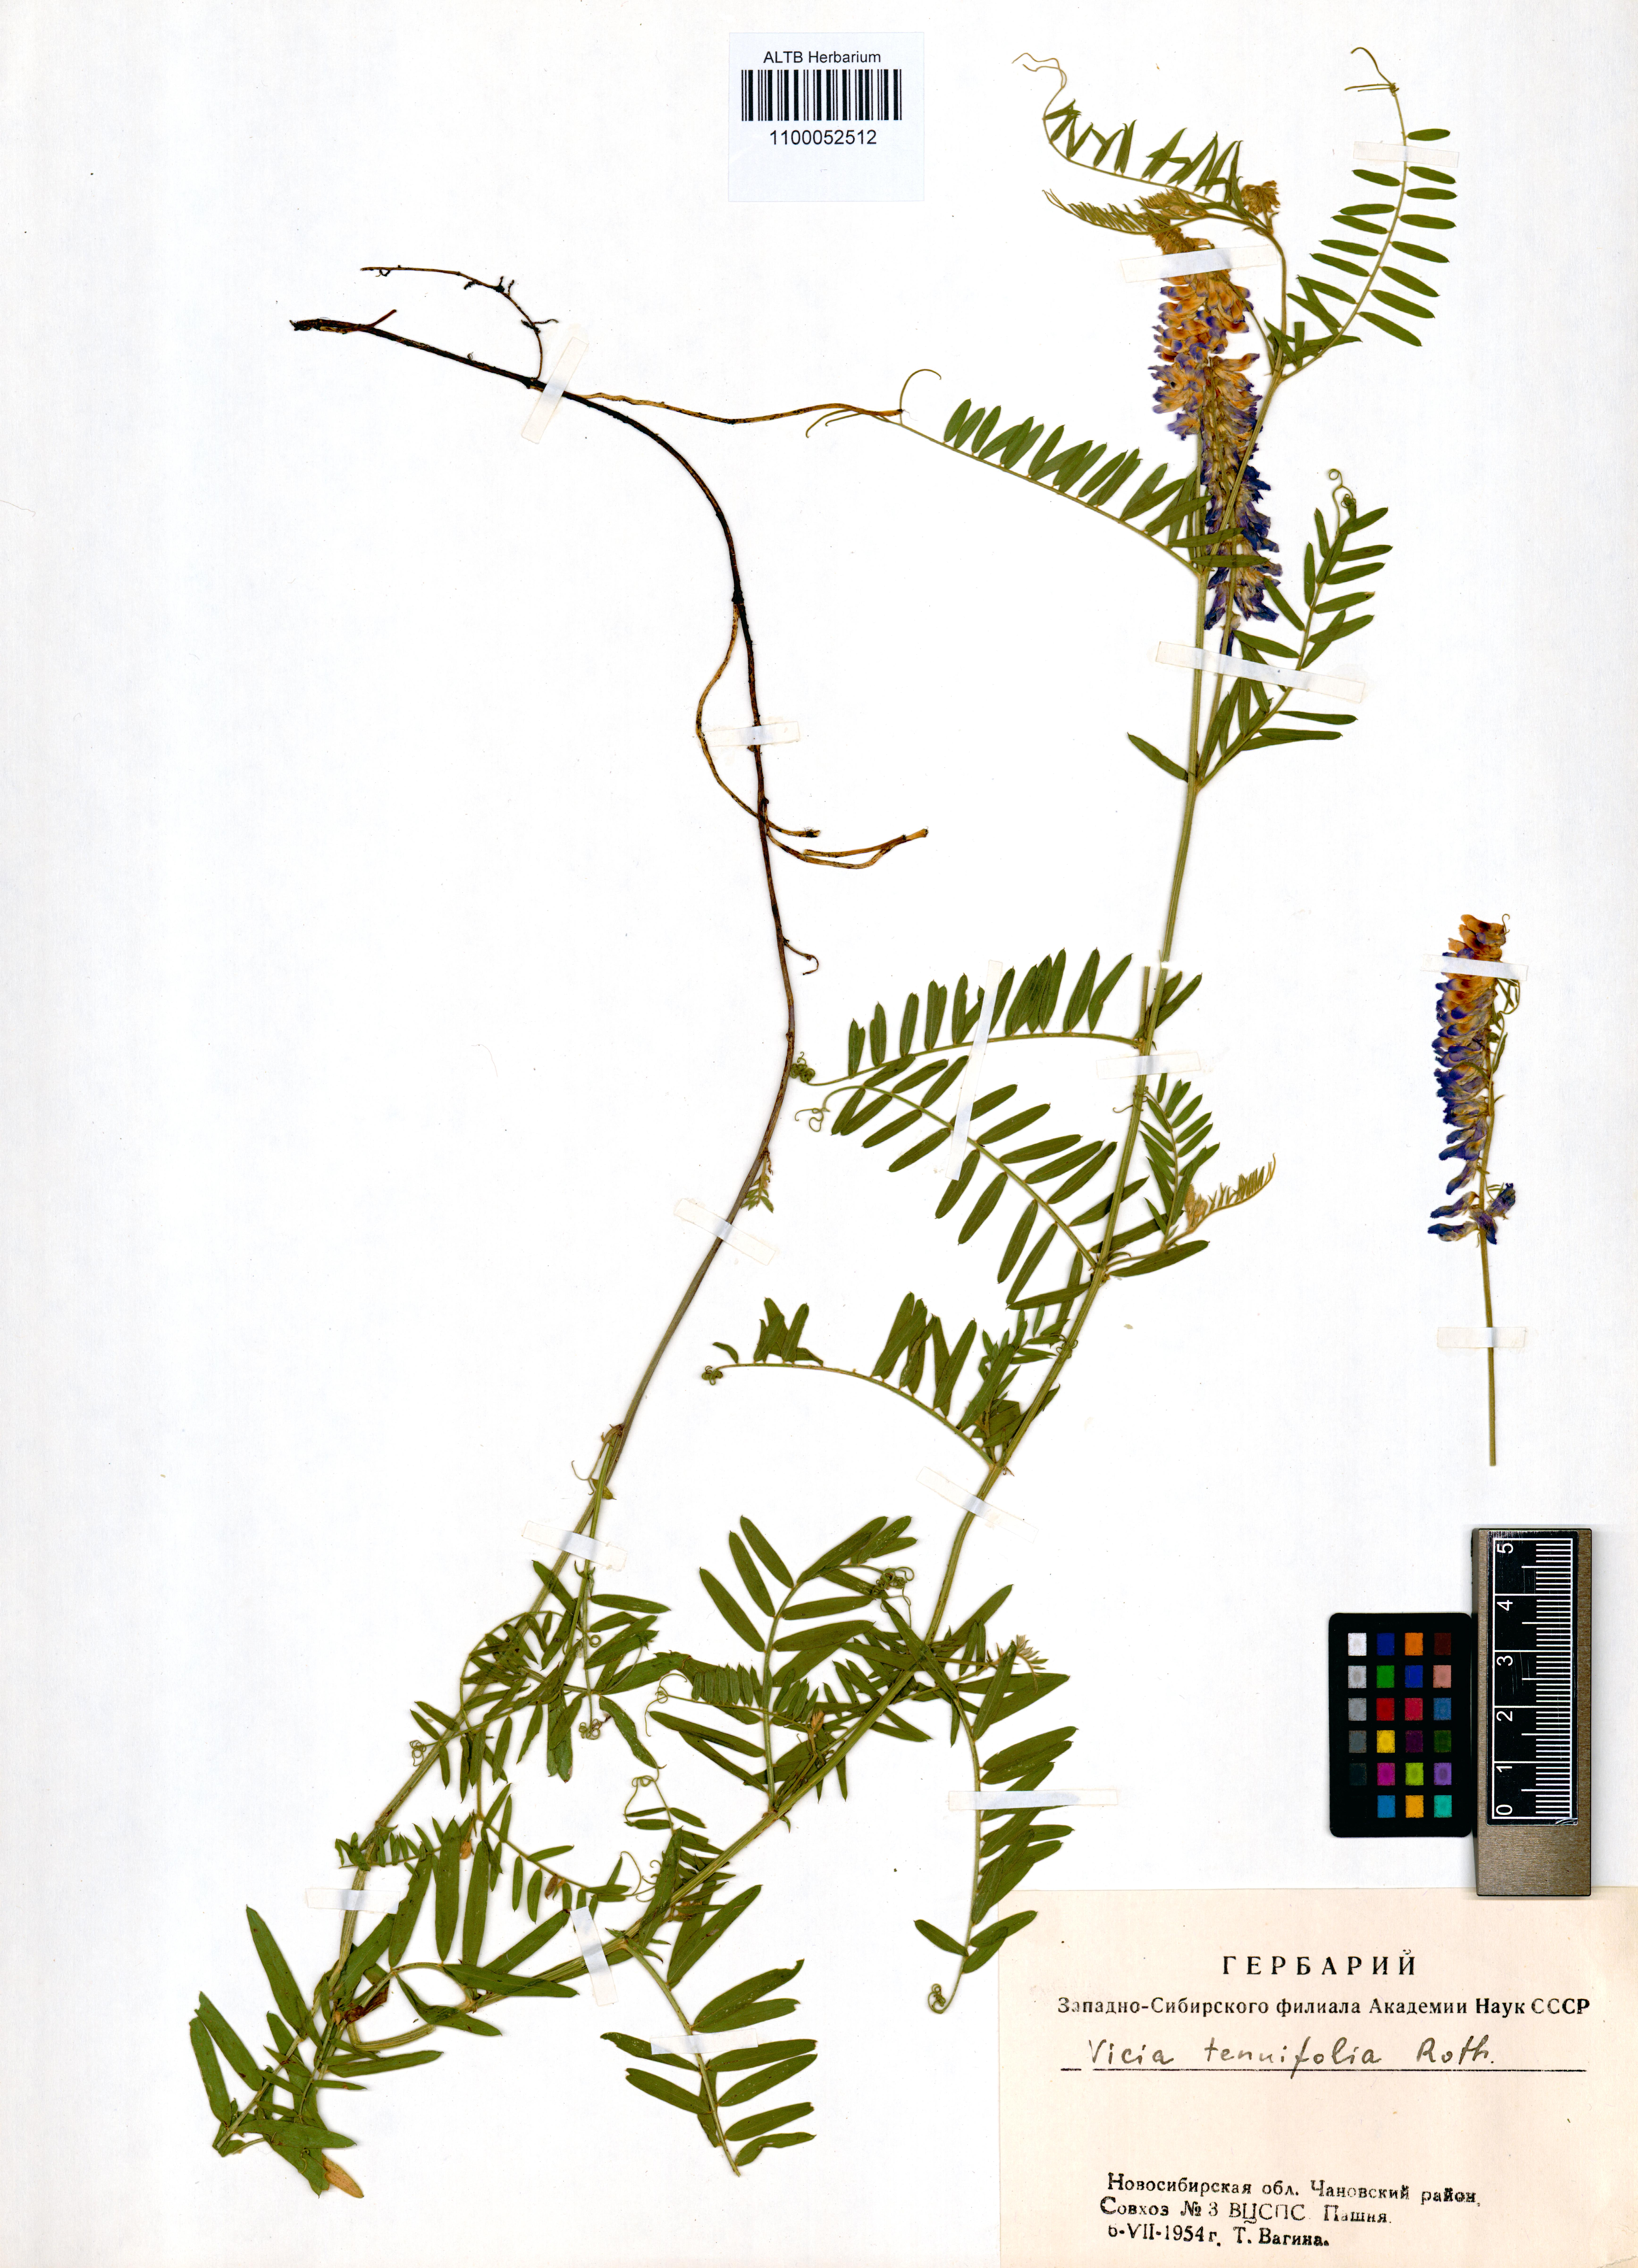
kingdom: Plantae
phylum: Tracheophyta
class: Magnoliopsida
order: Fabales
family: Fabaceae
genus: Vicia
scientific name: Vicia tenuifolia
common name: Fine-leaved vetch
